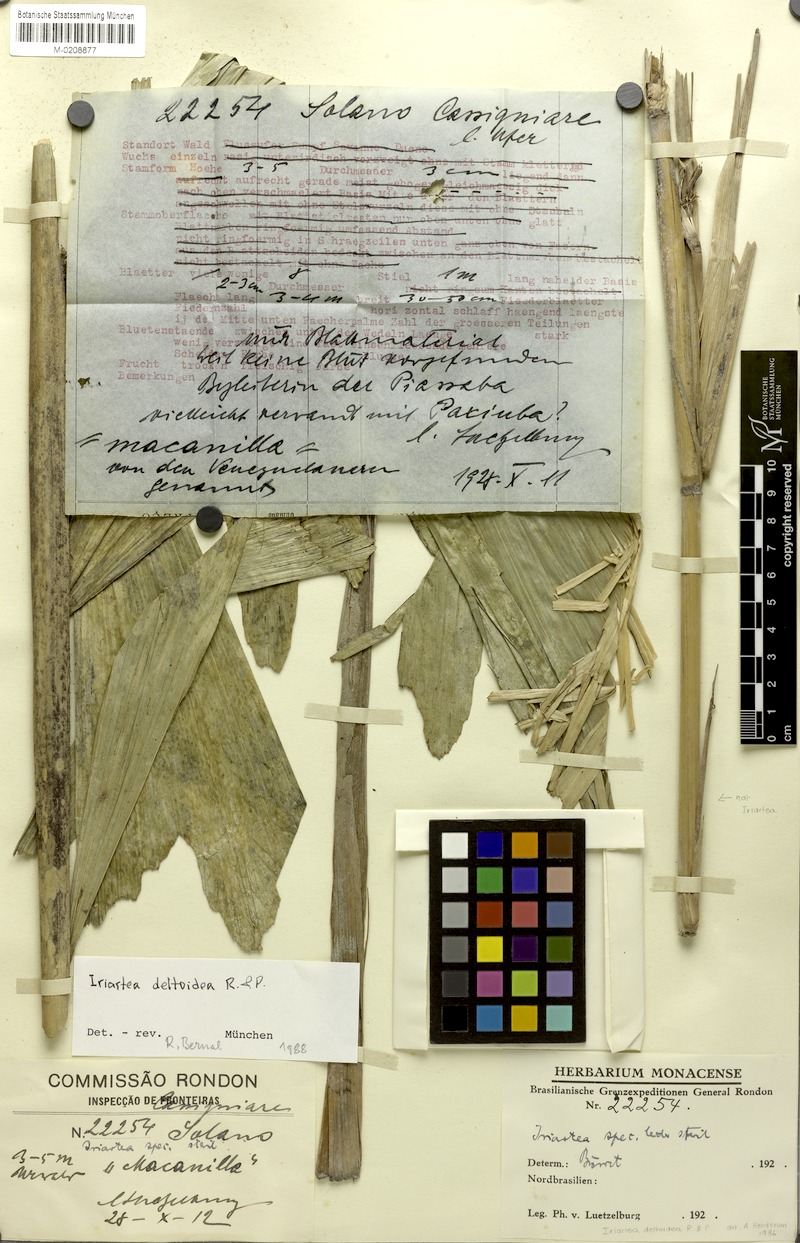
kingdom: Plantae
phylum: Tracheophyta
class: Liliopsida
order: Arecales
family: Arecaceae
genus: Iriartea
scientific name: Iriartea deltoidea
